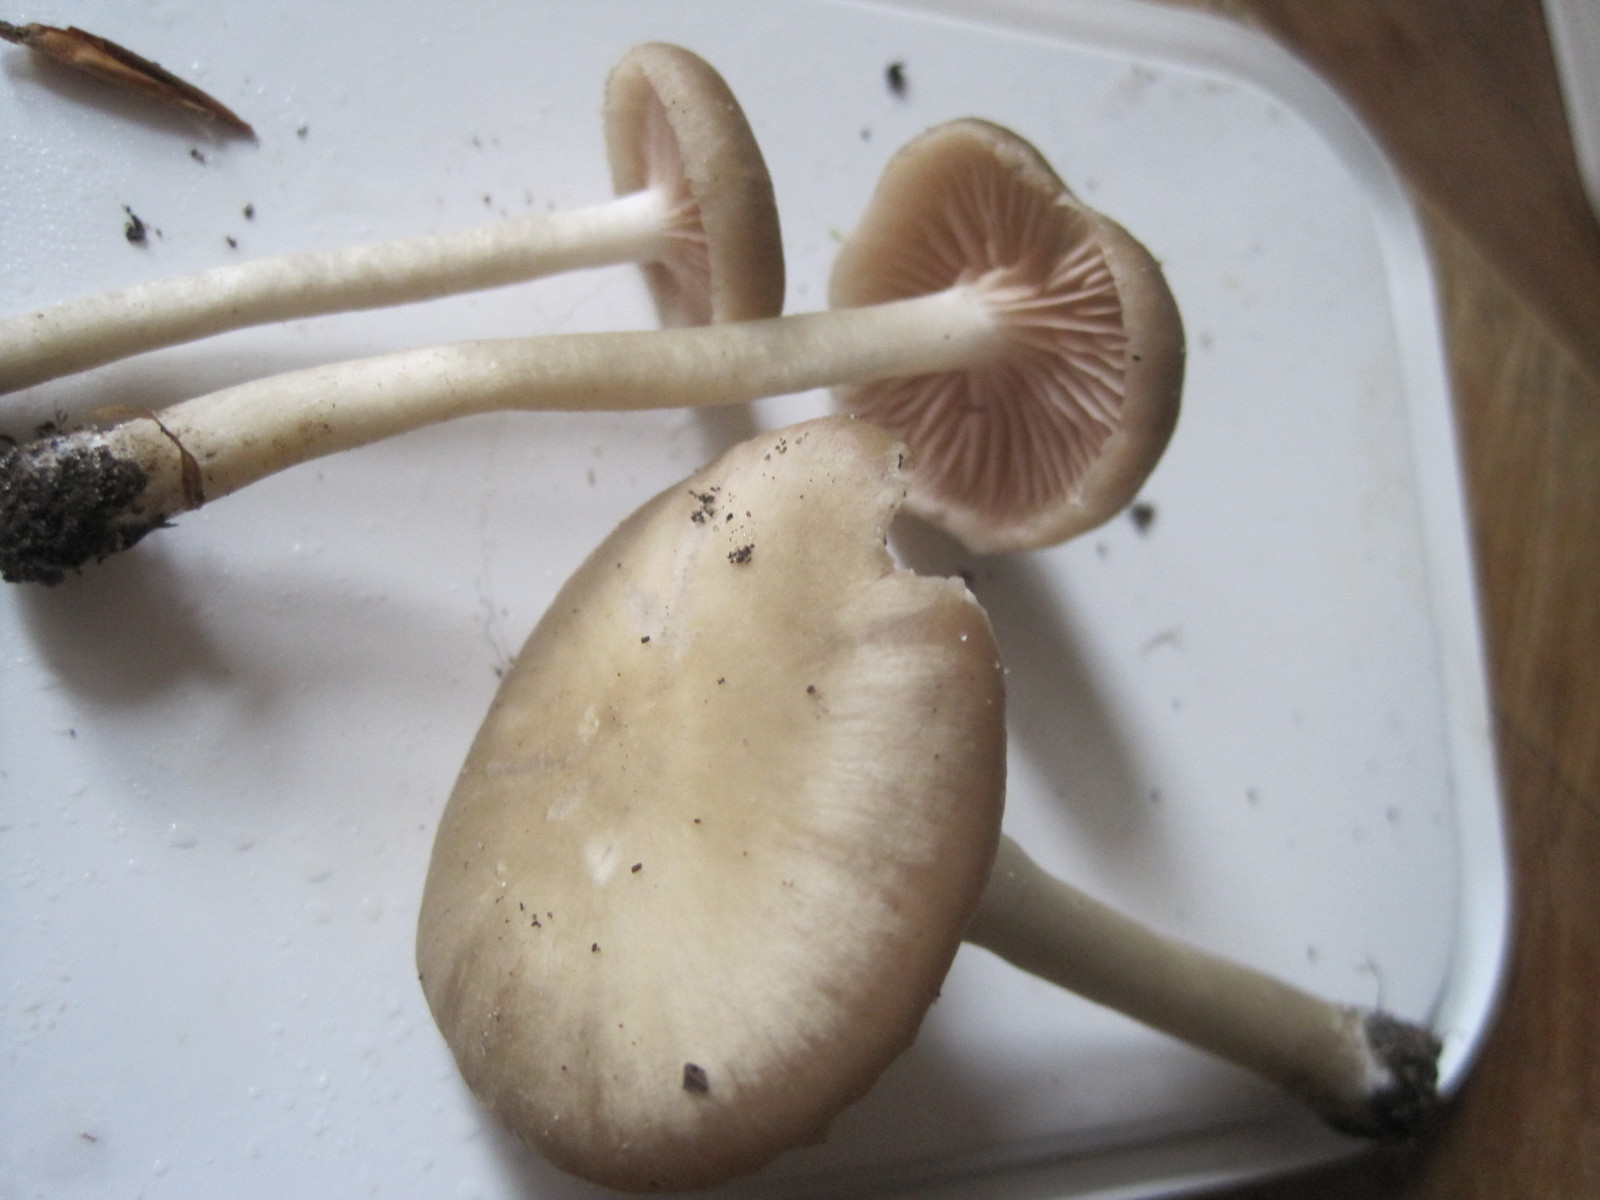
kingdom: Fungi
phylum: Basidiomycota
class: Agaricomycetes
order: Agaricales
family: Entolomataceae
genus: Entoloma
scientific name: Entoloma rhodopolium
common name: skov-rødblad
